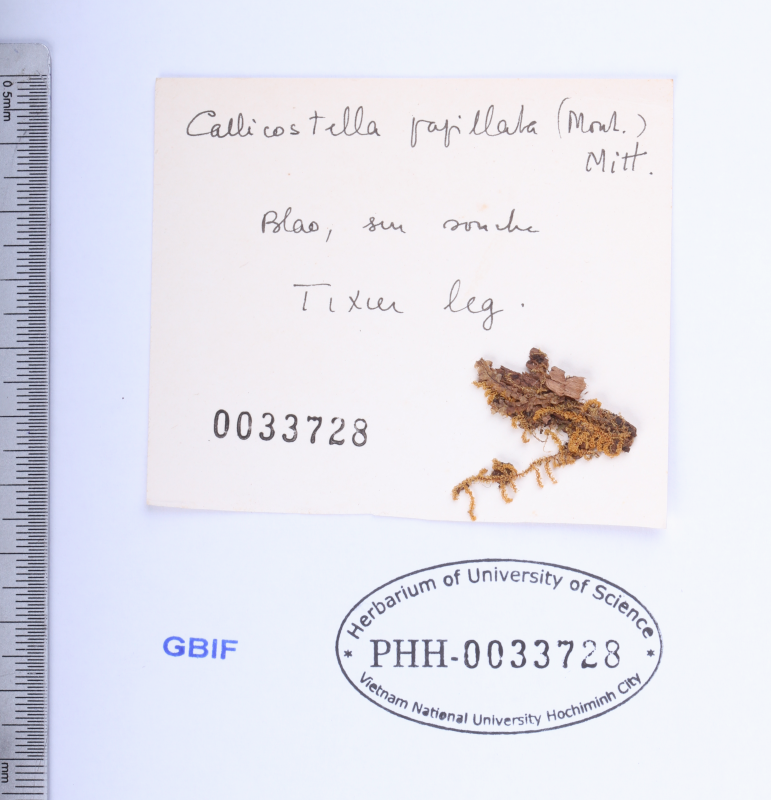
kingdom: Plantae
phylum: Bryophyta
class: Bryopsida
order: Hookeriales
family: Pilotrichaceae
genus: Callicostella
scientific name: Callicostella papillata
